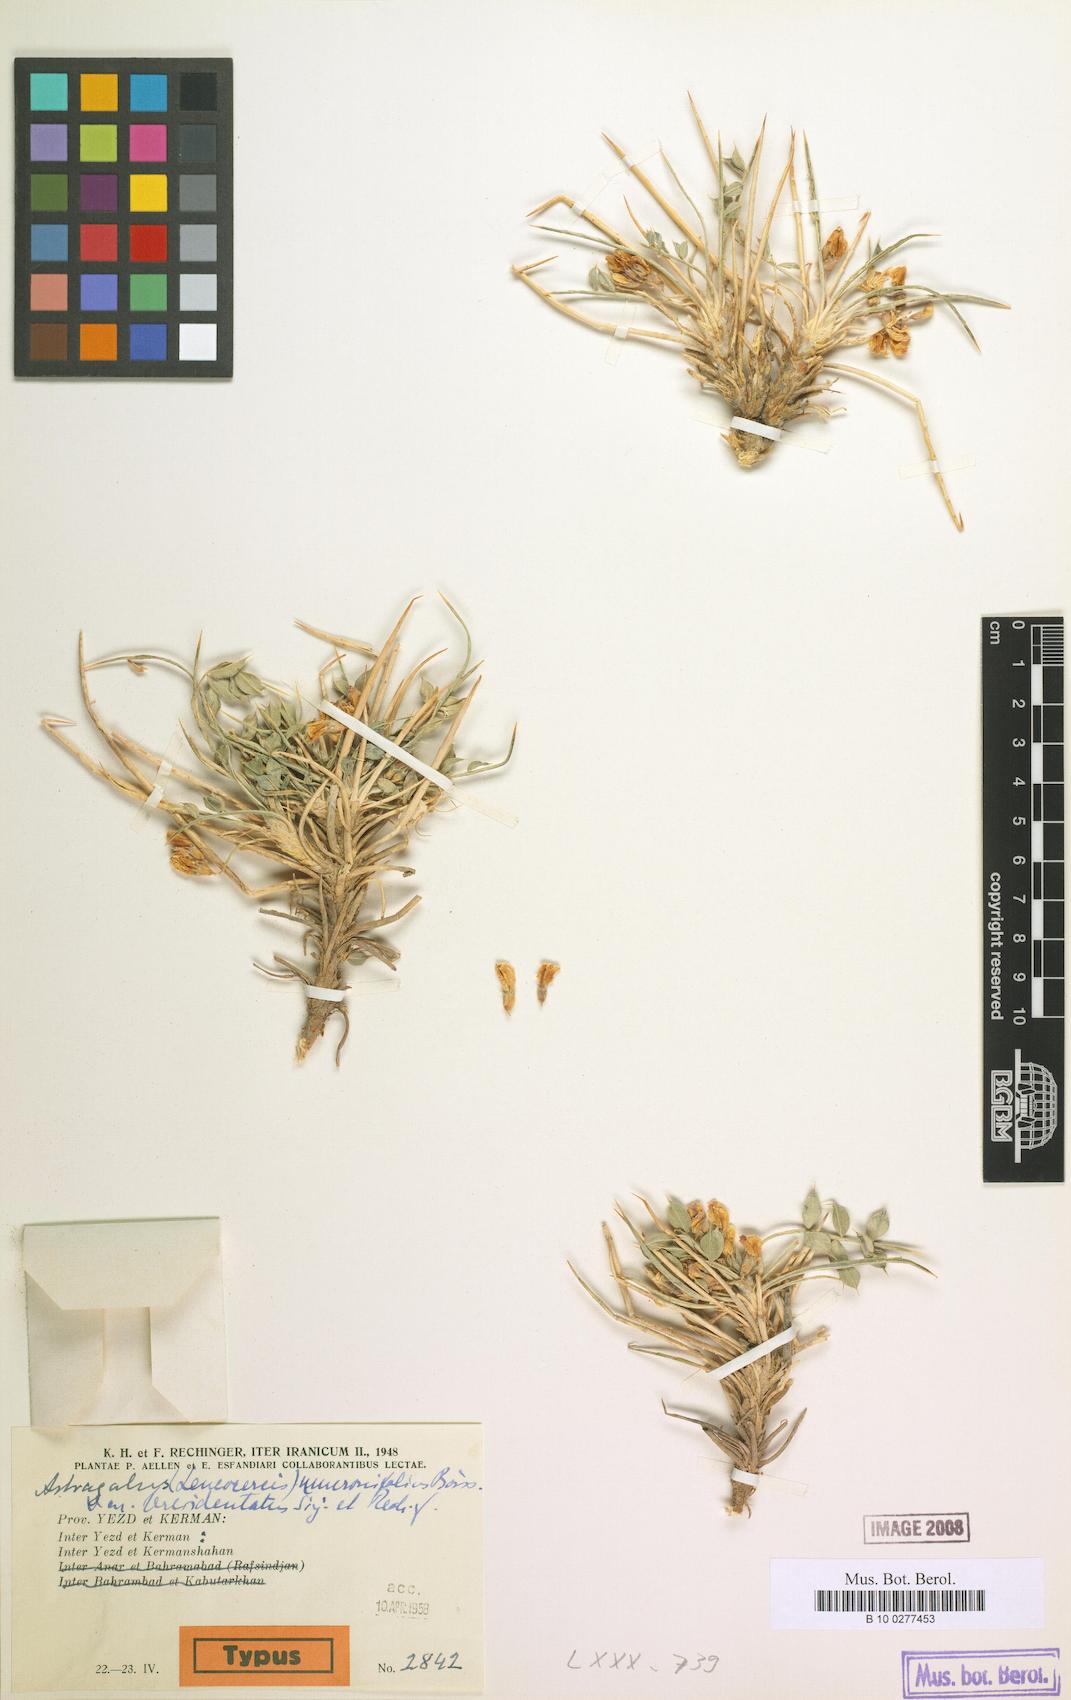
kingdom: Plantae
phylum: Tracheophyta
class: Magnoliopsida
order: Fabales
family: Fabaceae
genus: Astragalus
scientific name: Astragalus mucronifolius
